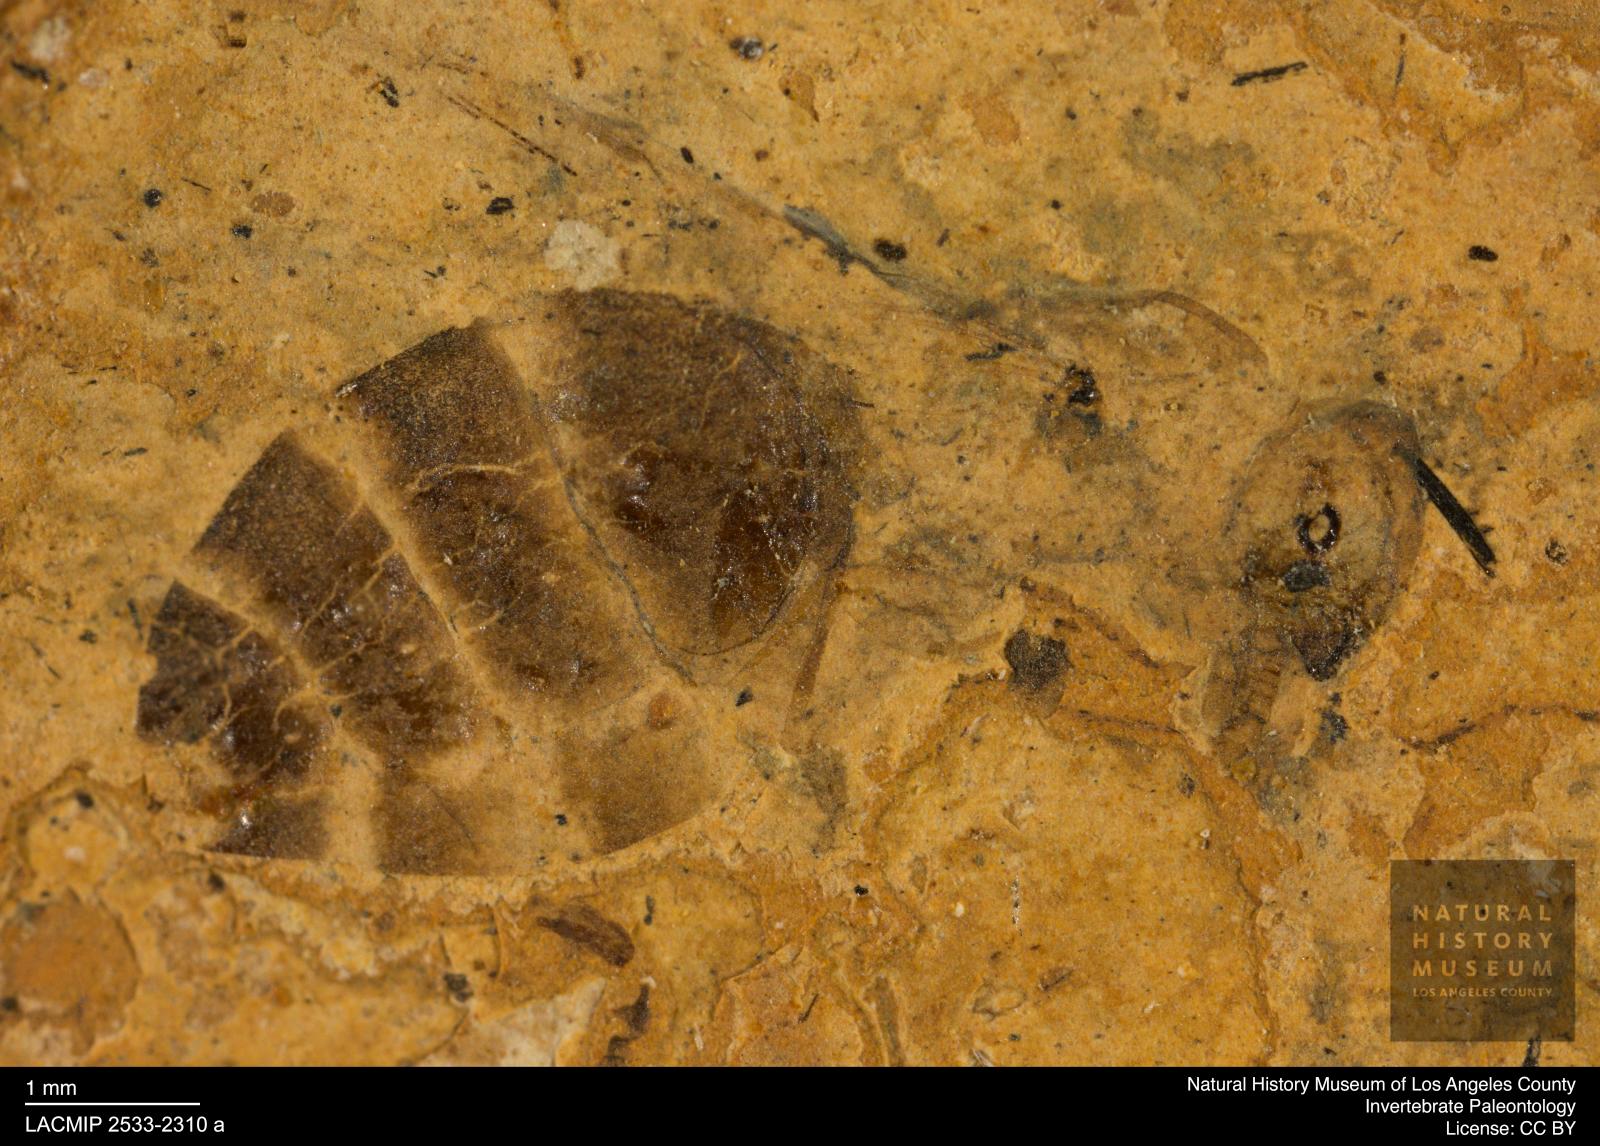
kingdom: Animalia
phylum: Arthropoda
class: Insecta
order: Hymenoptera
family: Formicidae
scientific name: Formicidae
